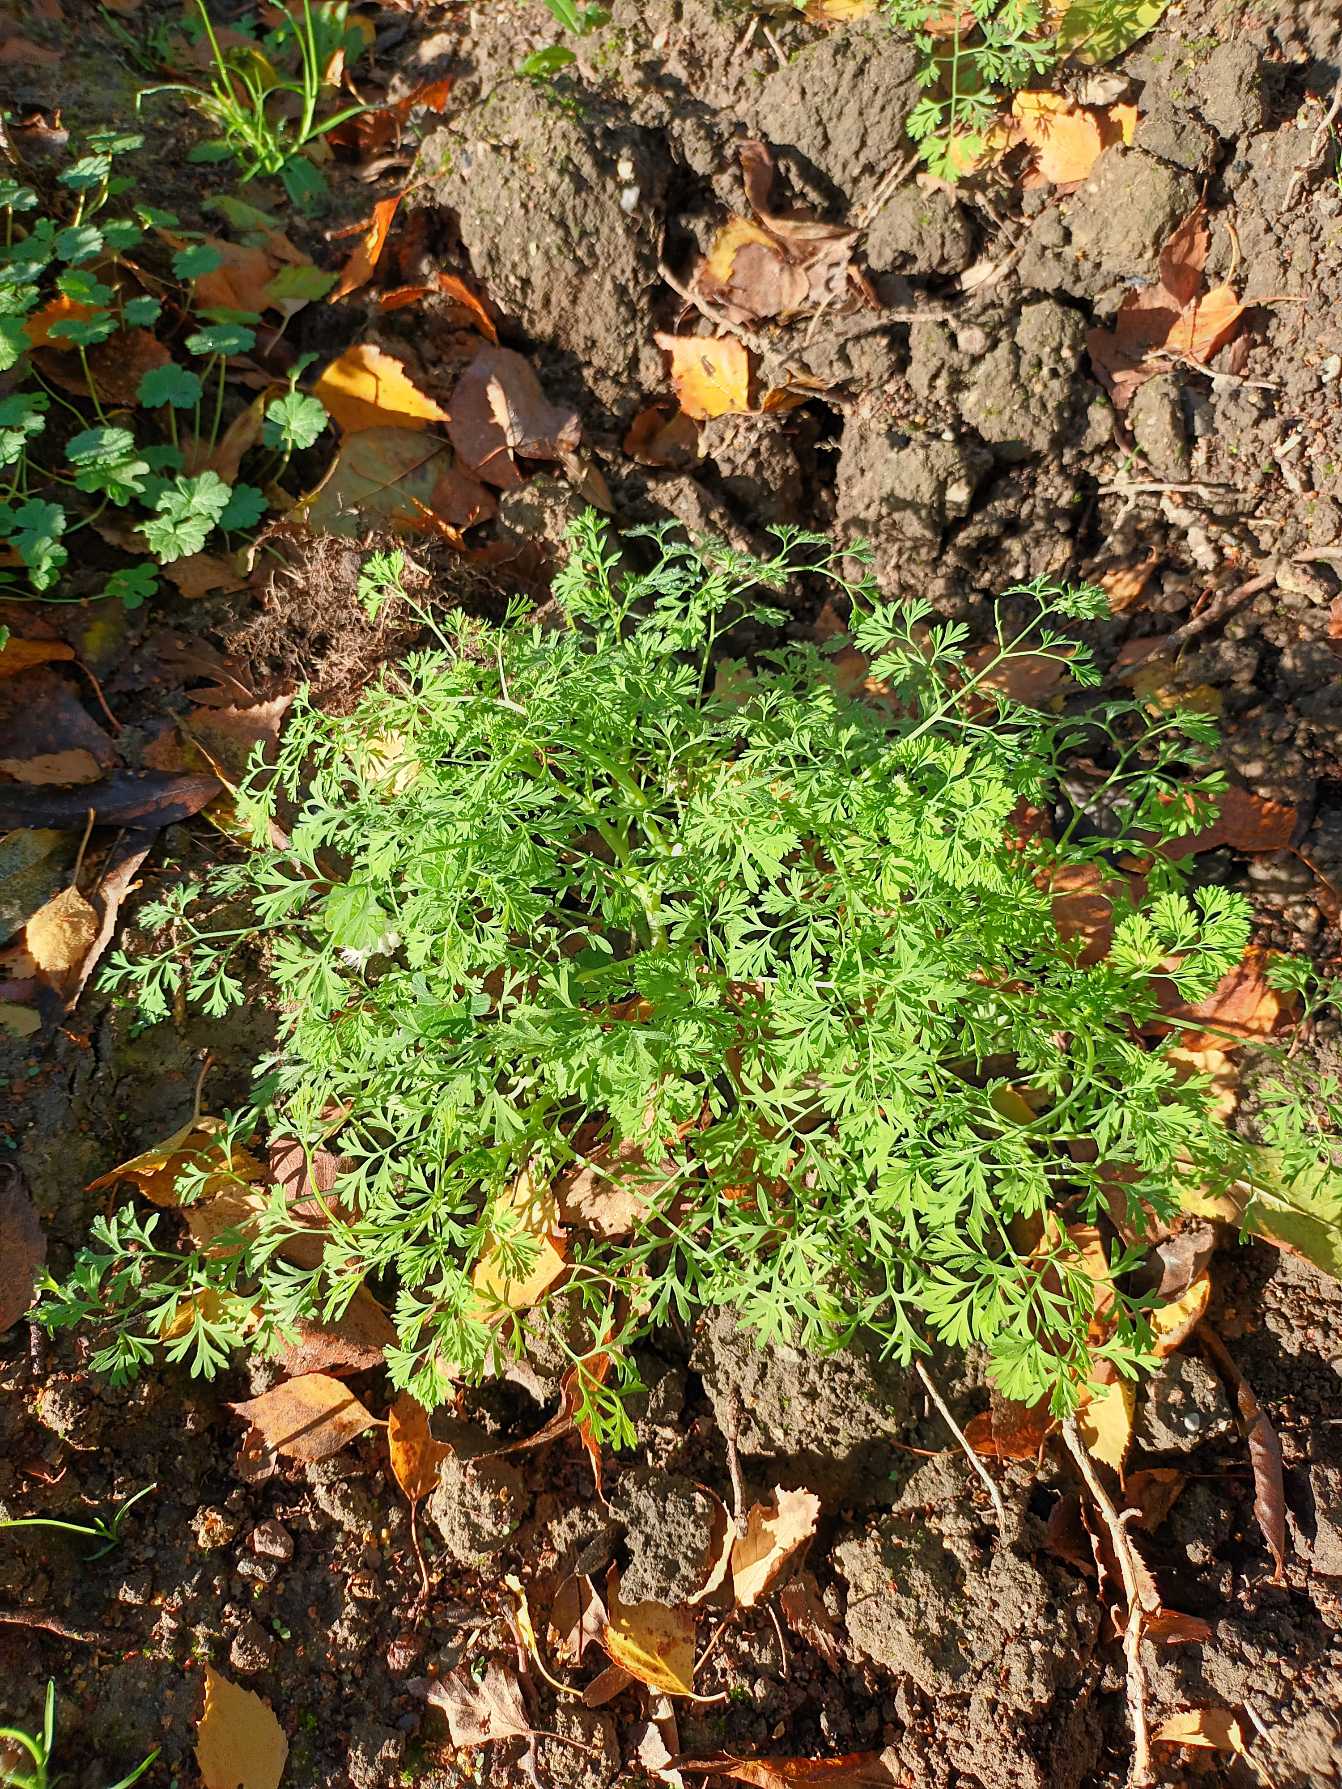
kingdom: Plantae
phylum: Tracheophyta
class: Magnoliopsida
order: Ranunculales
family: Papaveraceae
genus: Fumaria
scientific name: Fumaria officinalis
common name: Læge-jordrøg
